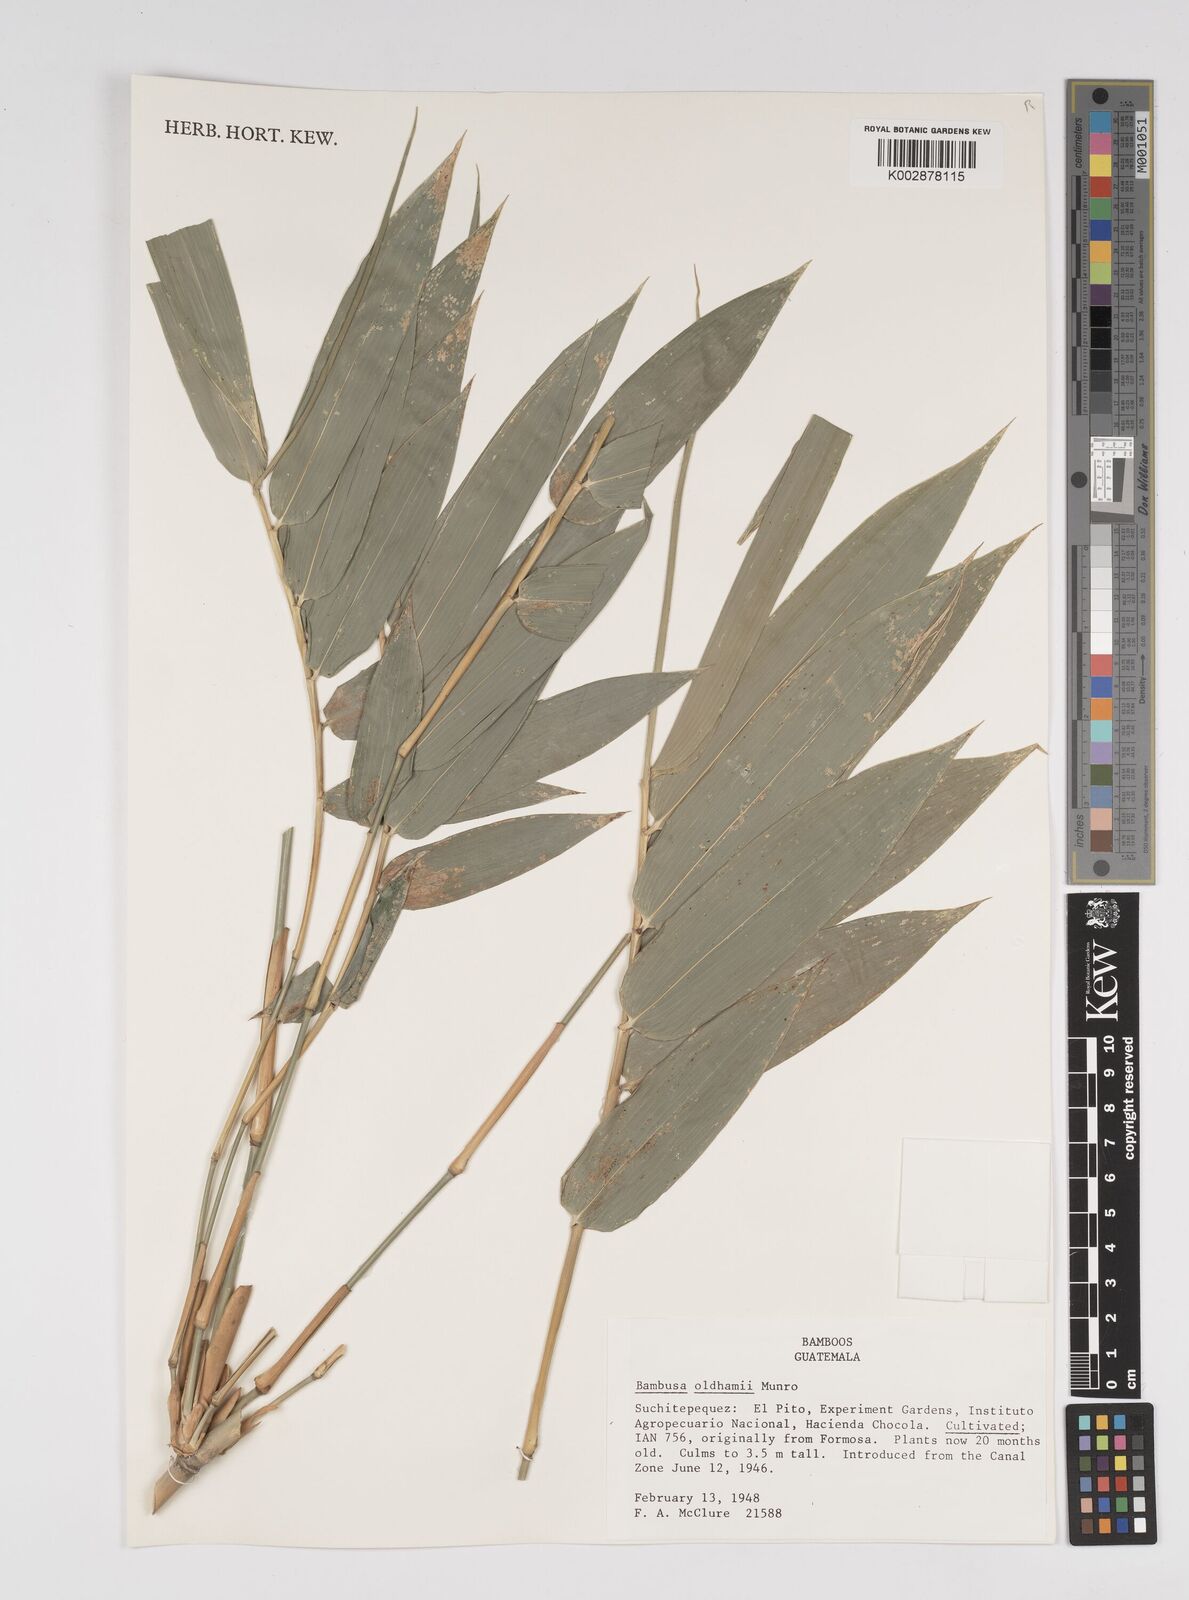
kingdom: Plantae
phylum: Tracheophyta
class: Liliopsida
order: Poales
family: Poaceae
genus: Bambusa
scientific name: Bambusa oldhamii
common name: Giant timber bamboo
